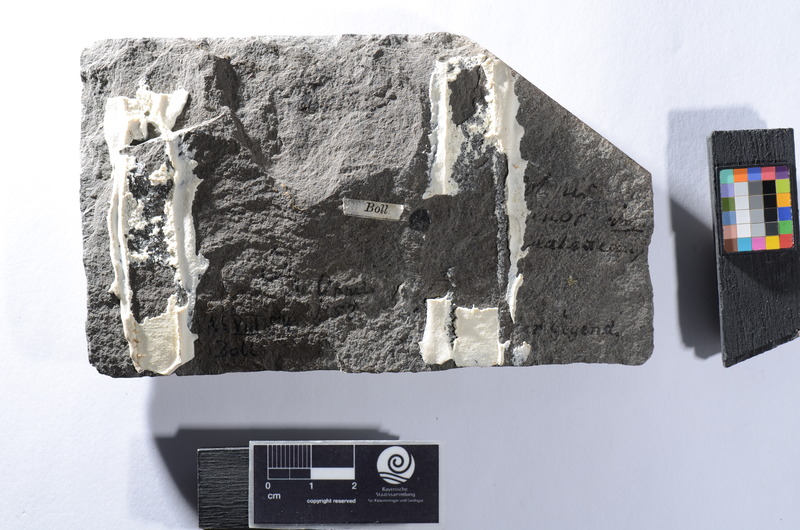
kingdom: Animalia
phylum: Chordata
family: Dapediidae
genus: Tetragonolepis
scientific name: Tetragonolepis
